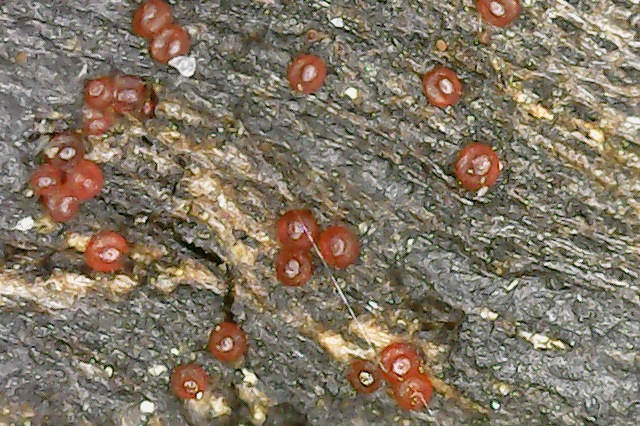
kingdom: Fungi
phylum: Ascomycota
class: Sordariomycetes
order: Hypocreales
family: Nectriaceae
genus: Pseudocosmospora
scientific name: Pseudocosmospora eutypae
